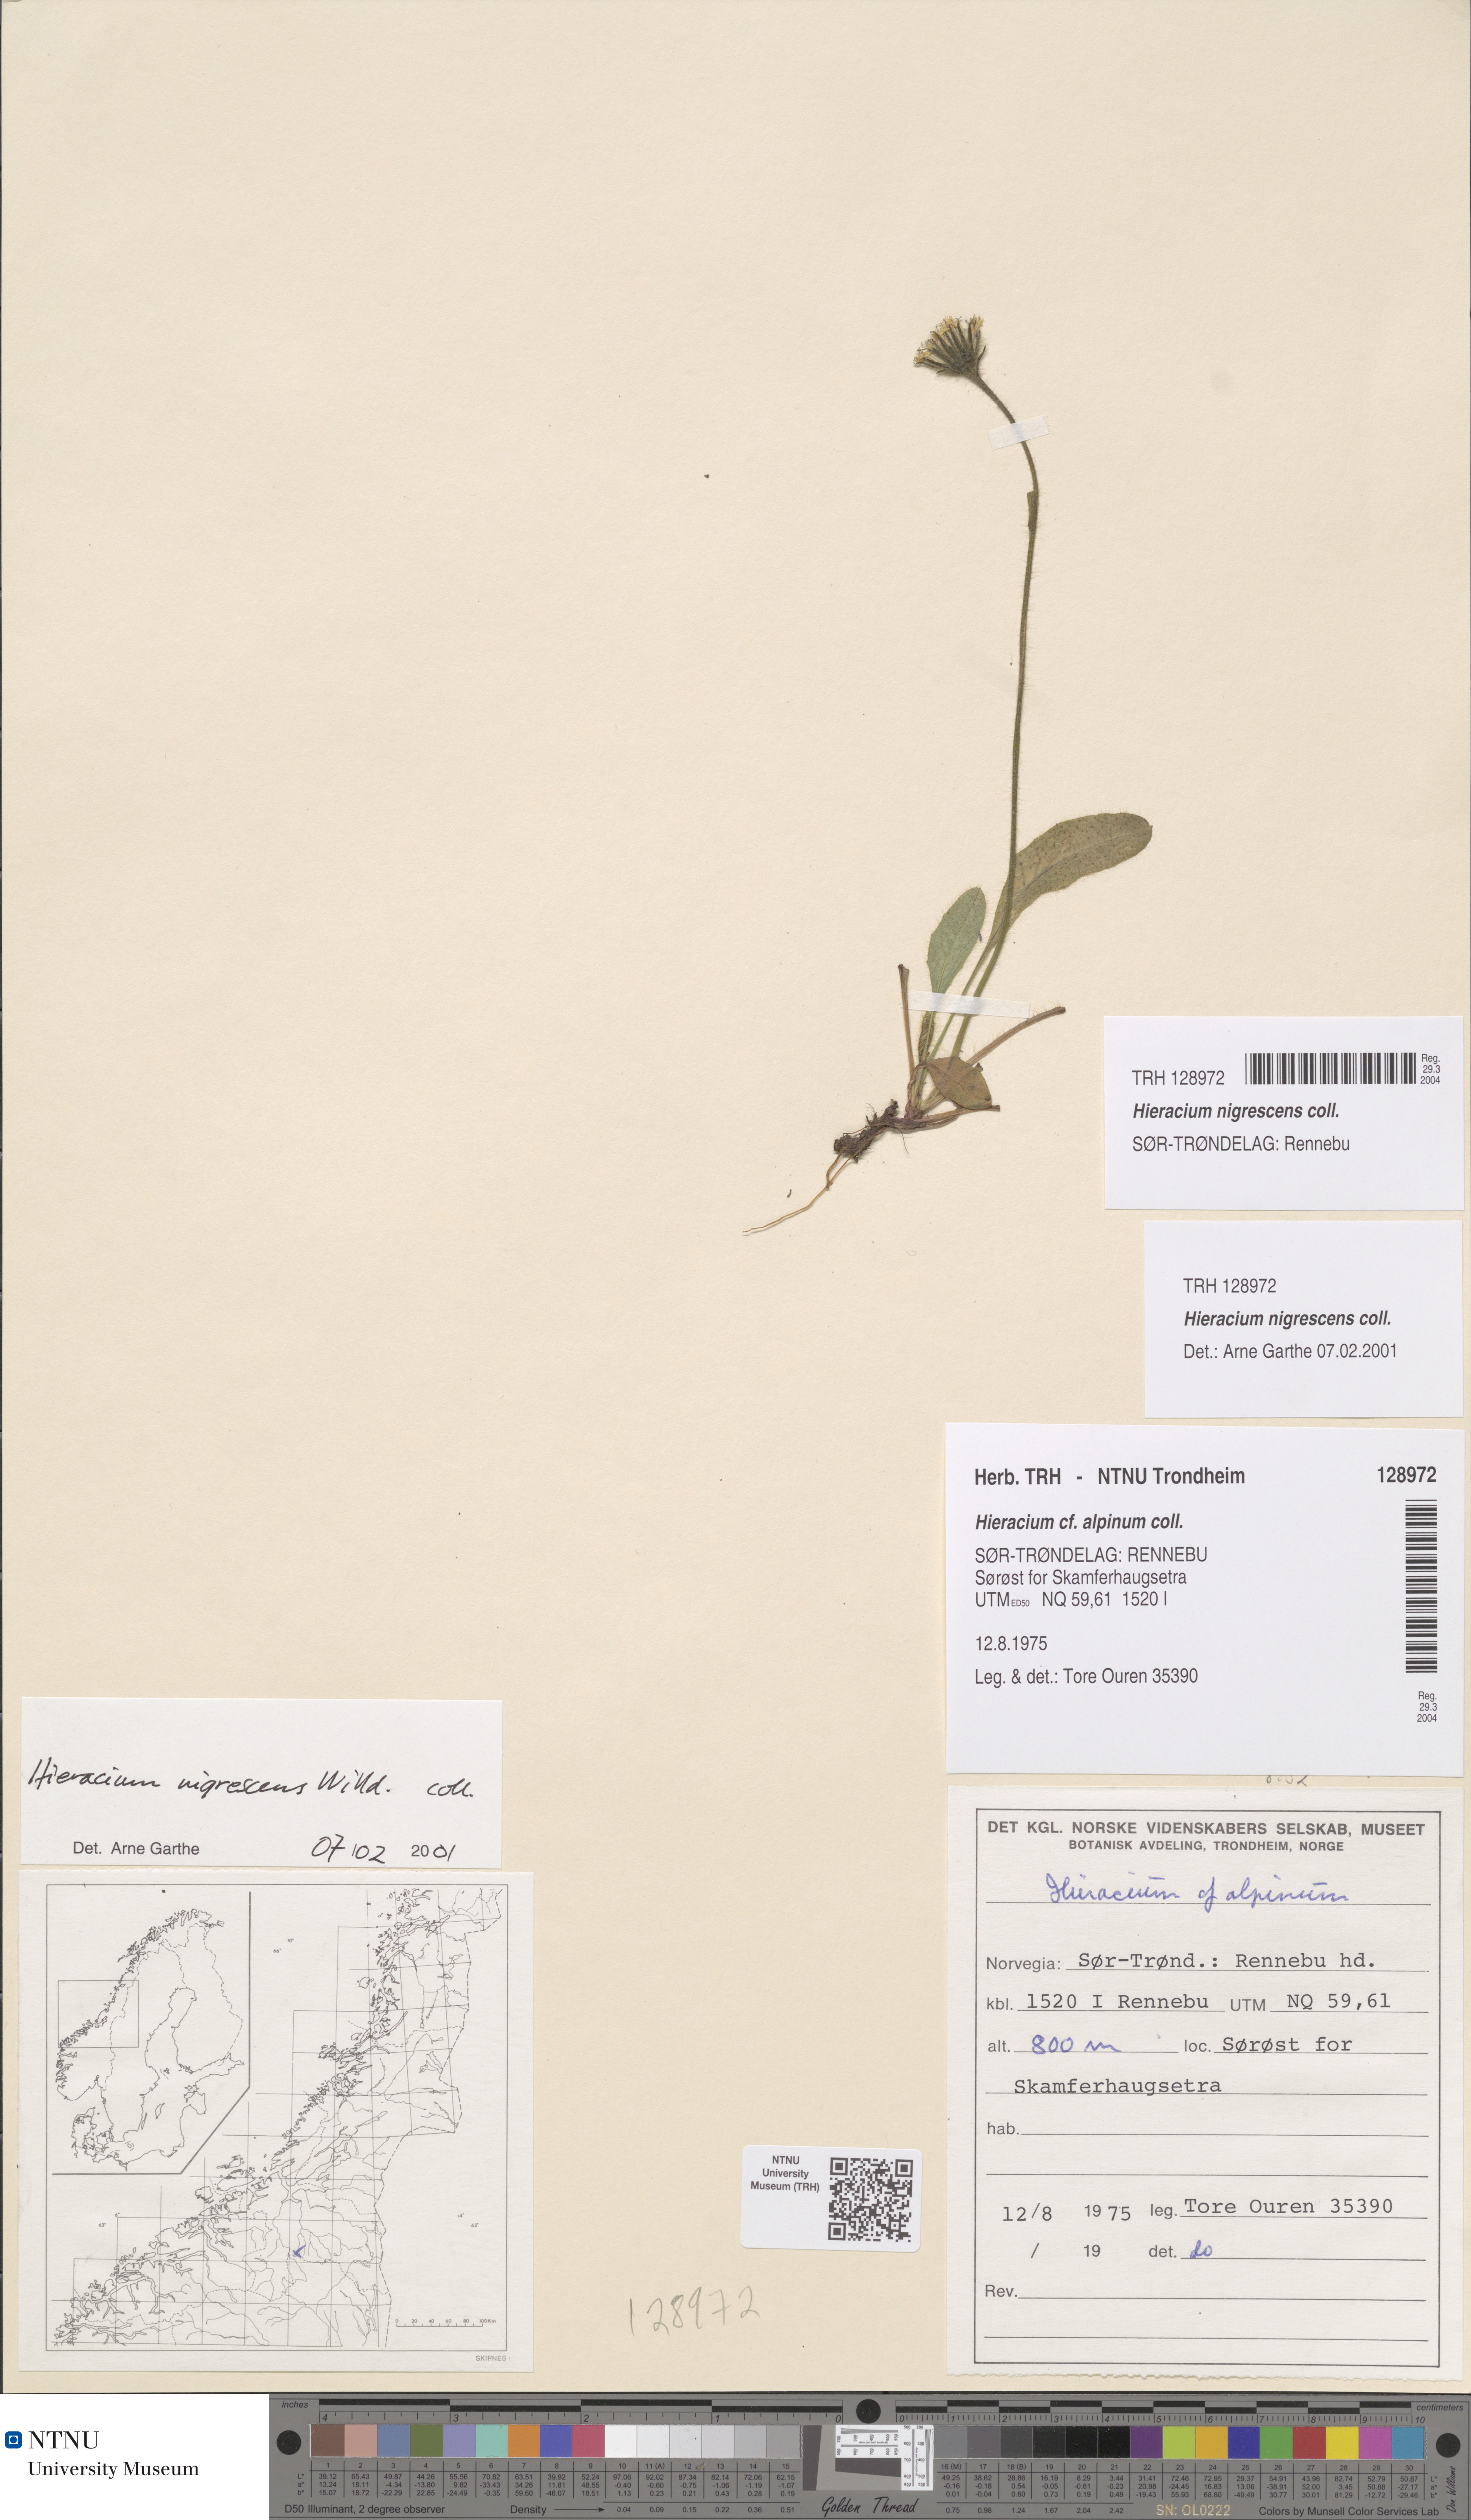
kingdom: Plantae
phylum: Tracheophyta
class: Magnoliopsida
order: Asterales
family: Asteraceae
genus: Hieracium
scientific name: Hieracium nigrescens
